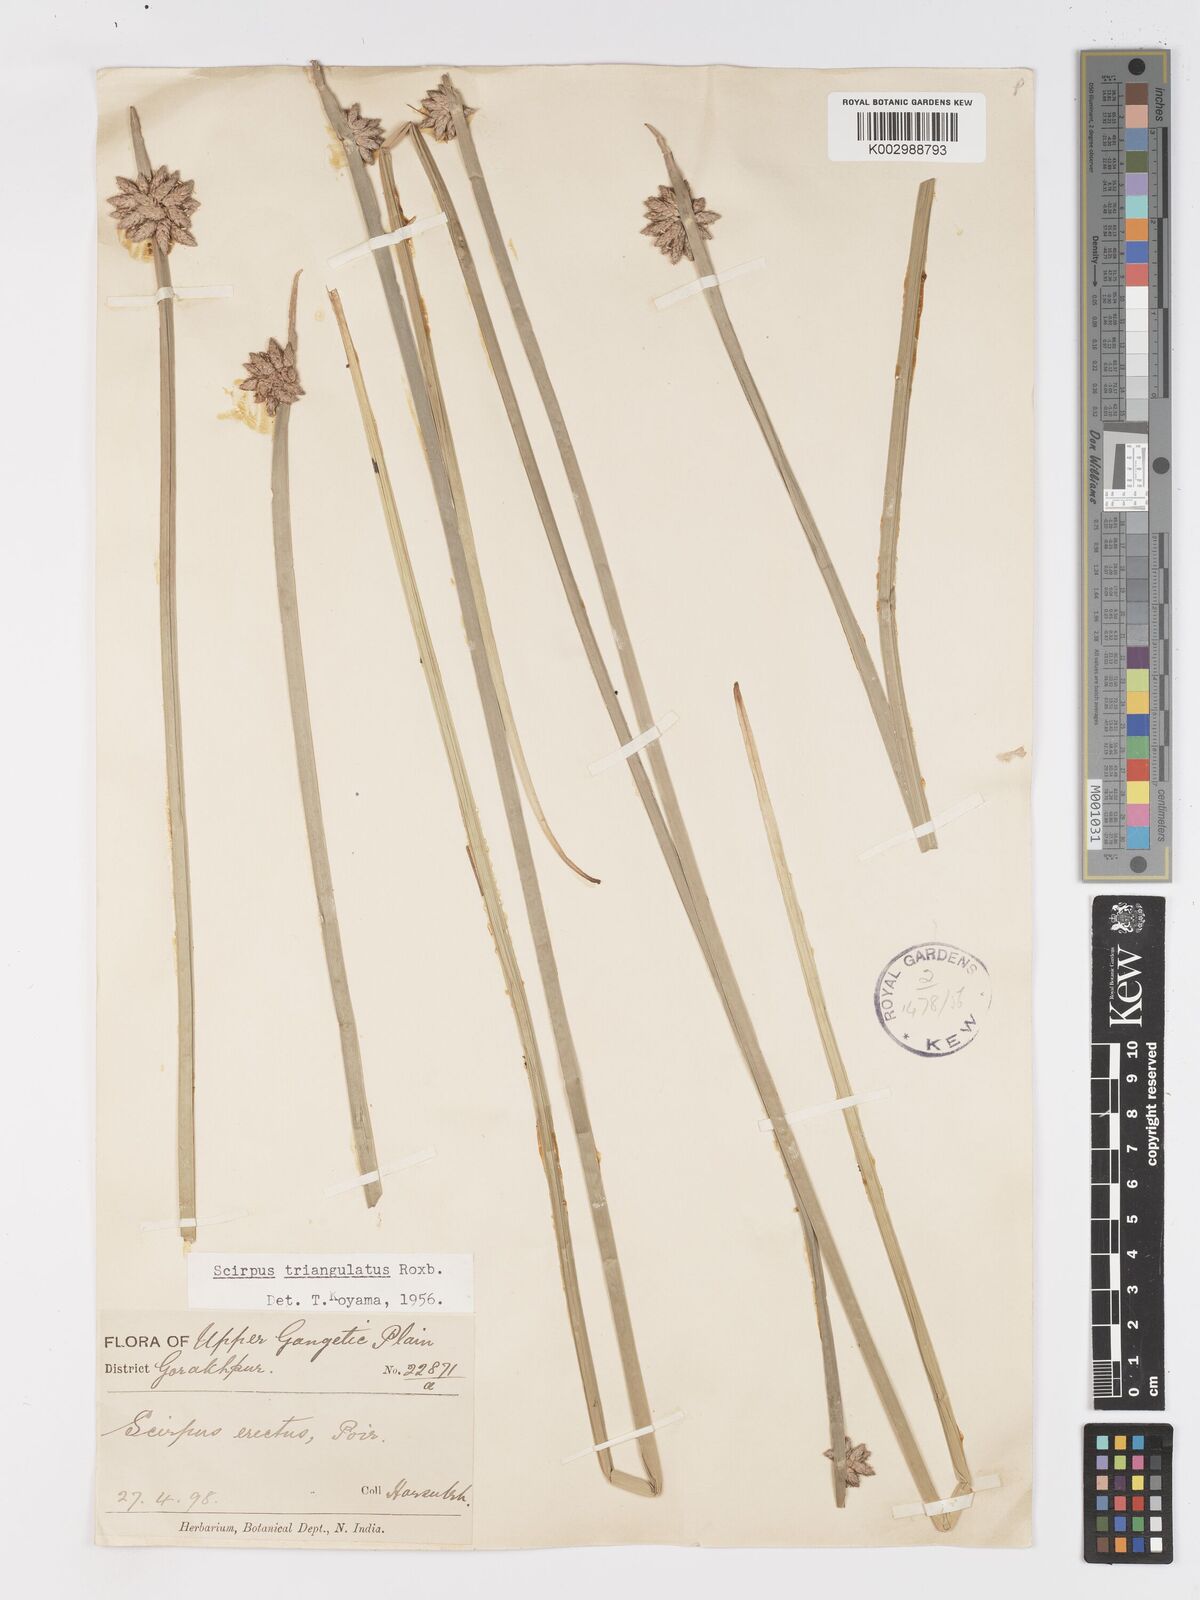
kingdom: Plantae
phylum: Tracheophyta
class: Liliopsida
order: Poales
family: Cyperaceae
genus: Schoenoplectiella
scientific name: Schoenoplectiella mucronata
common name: Bog bulrush
